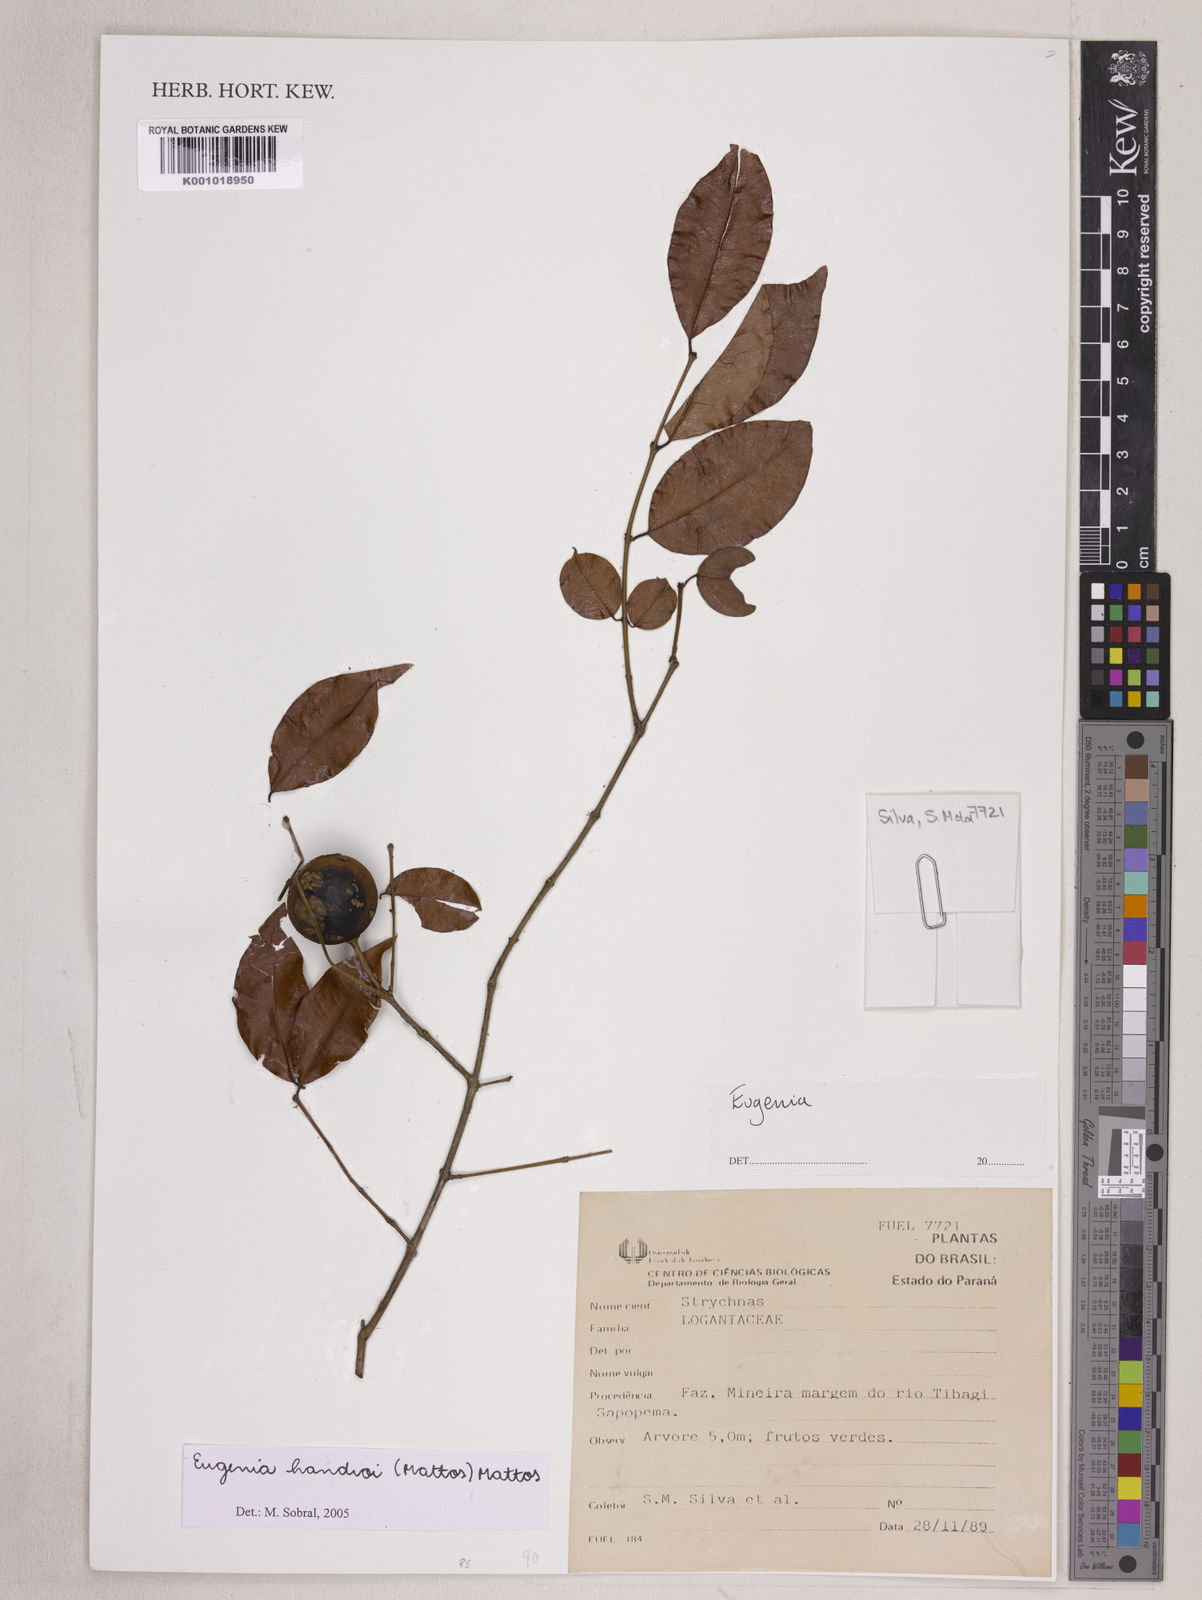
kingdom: Plantae
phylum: Tracheophyta
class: Magnoliopsida
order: Myrtales
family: Myrtaceae
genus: Eugenia
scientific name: Eugenia handroi
